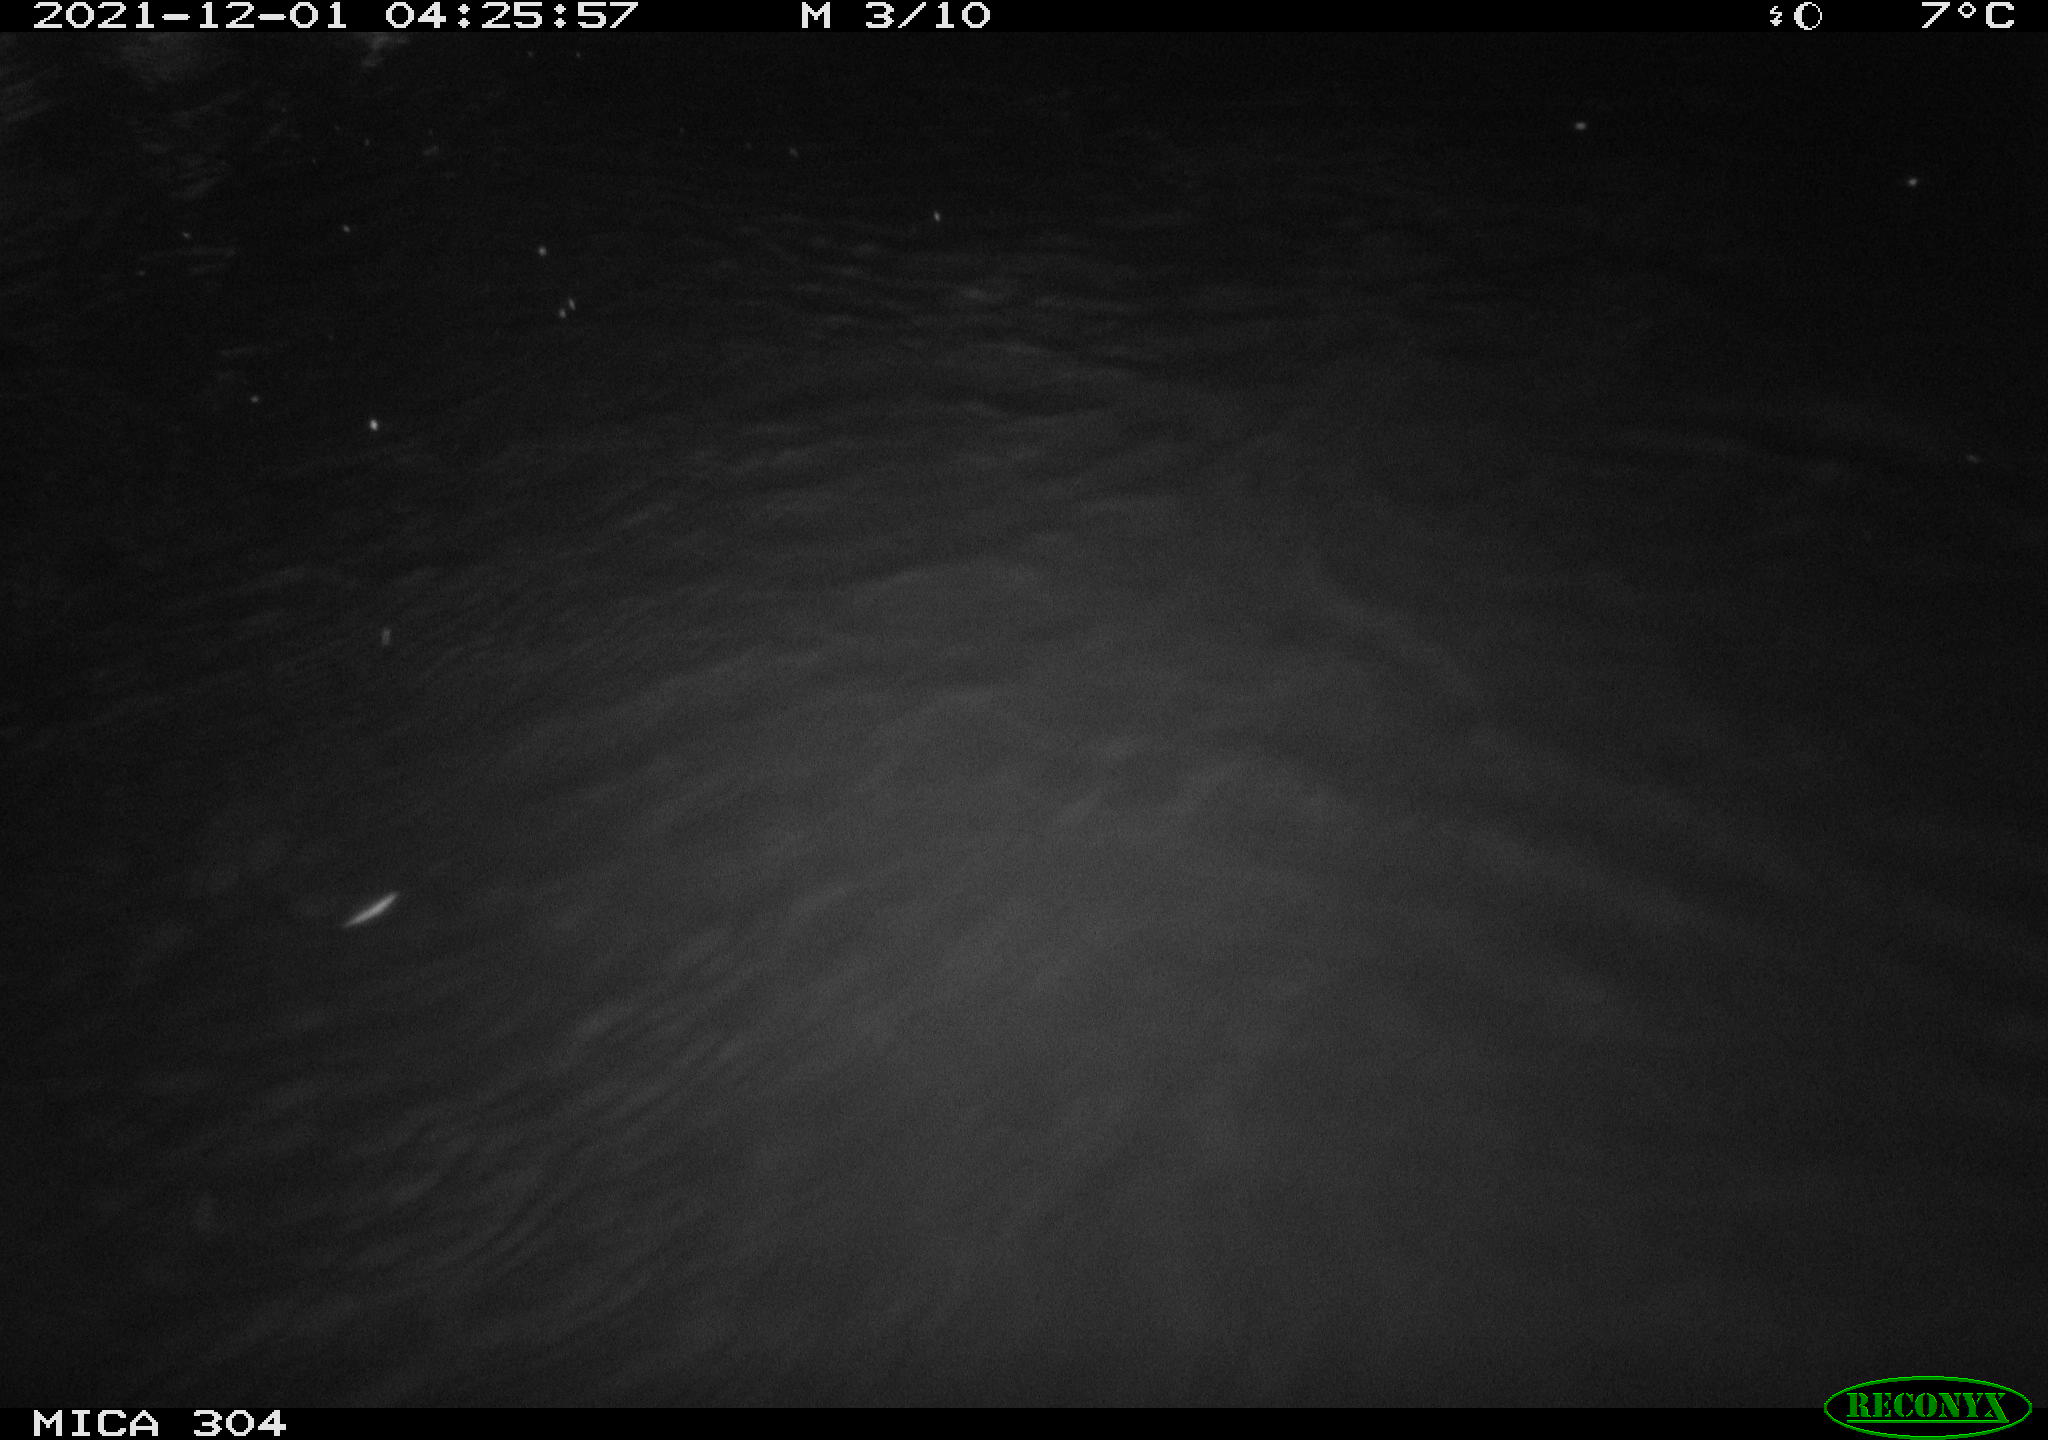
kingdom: Animalia
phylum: Chordata
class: Mammalia
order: Rodentia
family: Muridae
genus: Rattus
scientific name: Rattus norvegicus
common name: Brown rat
